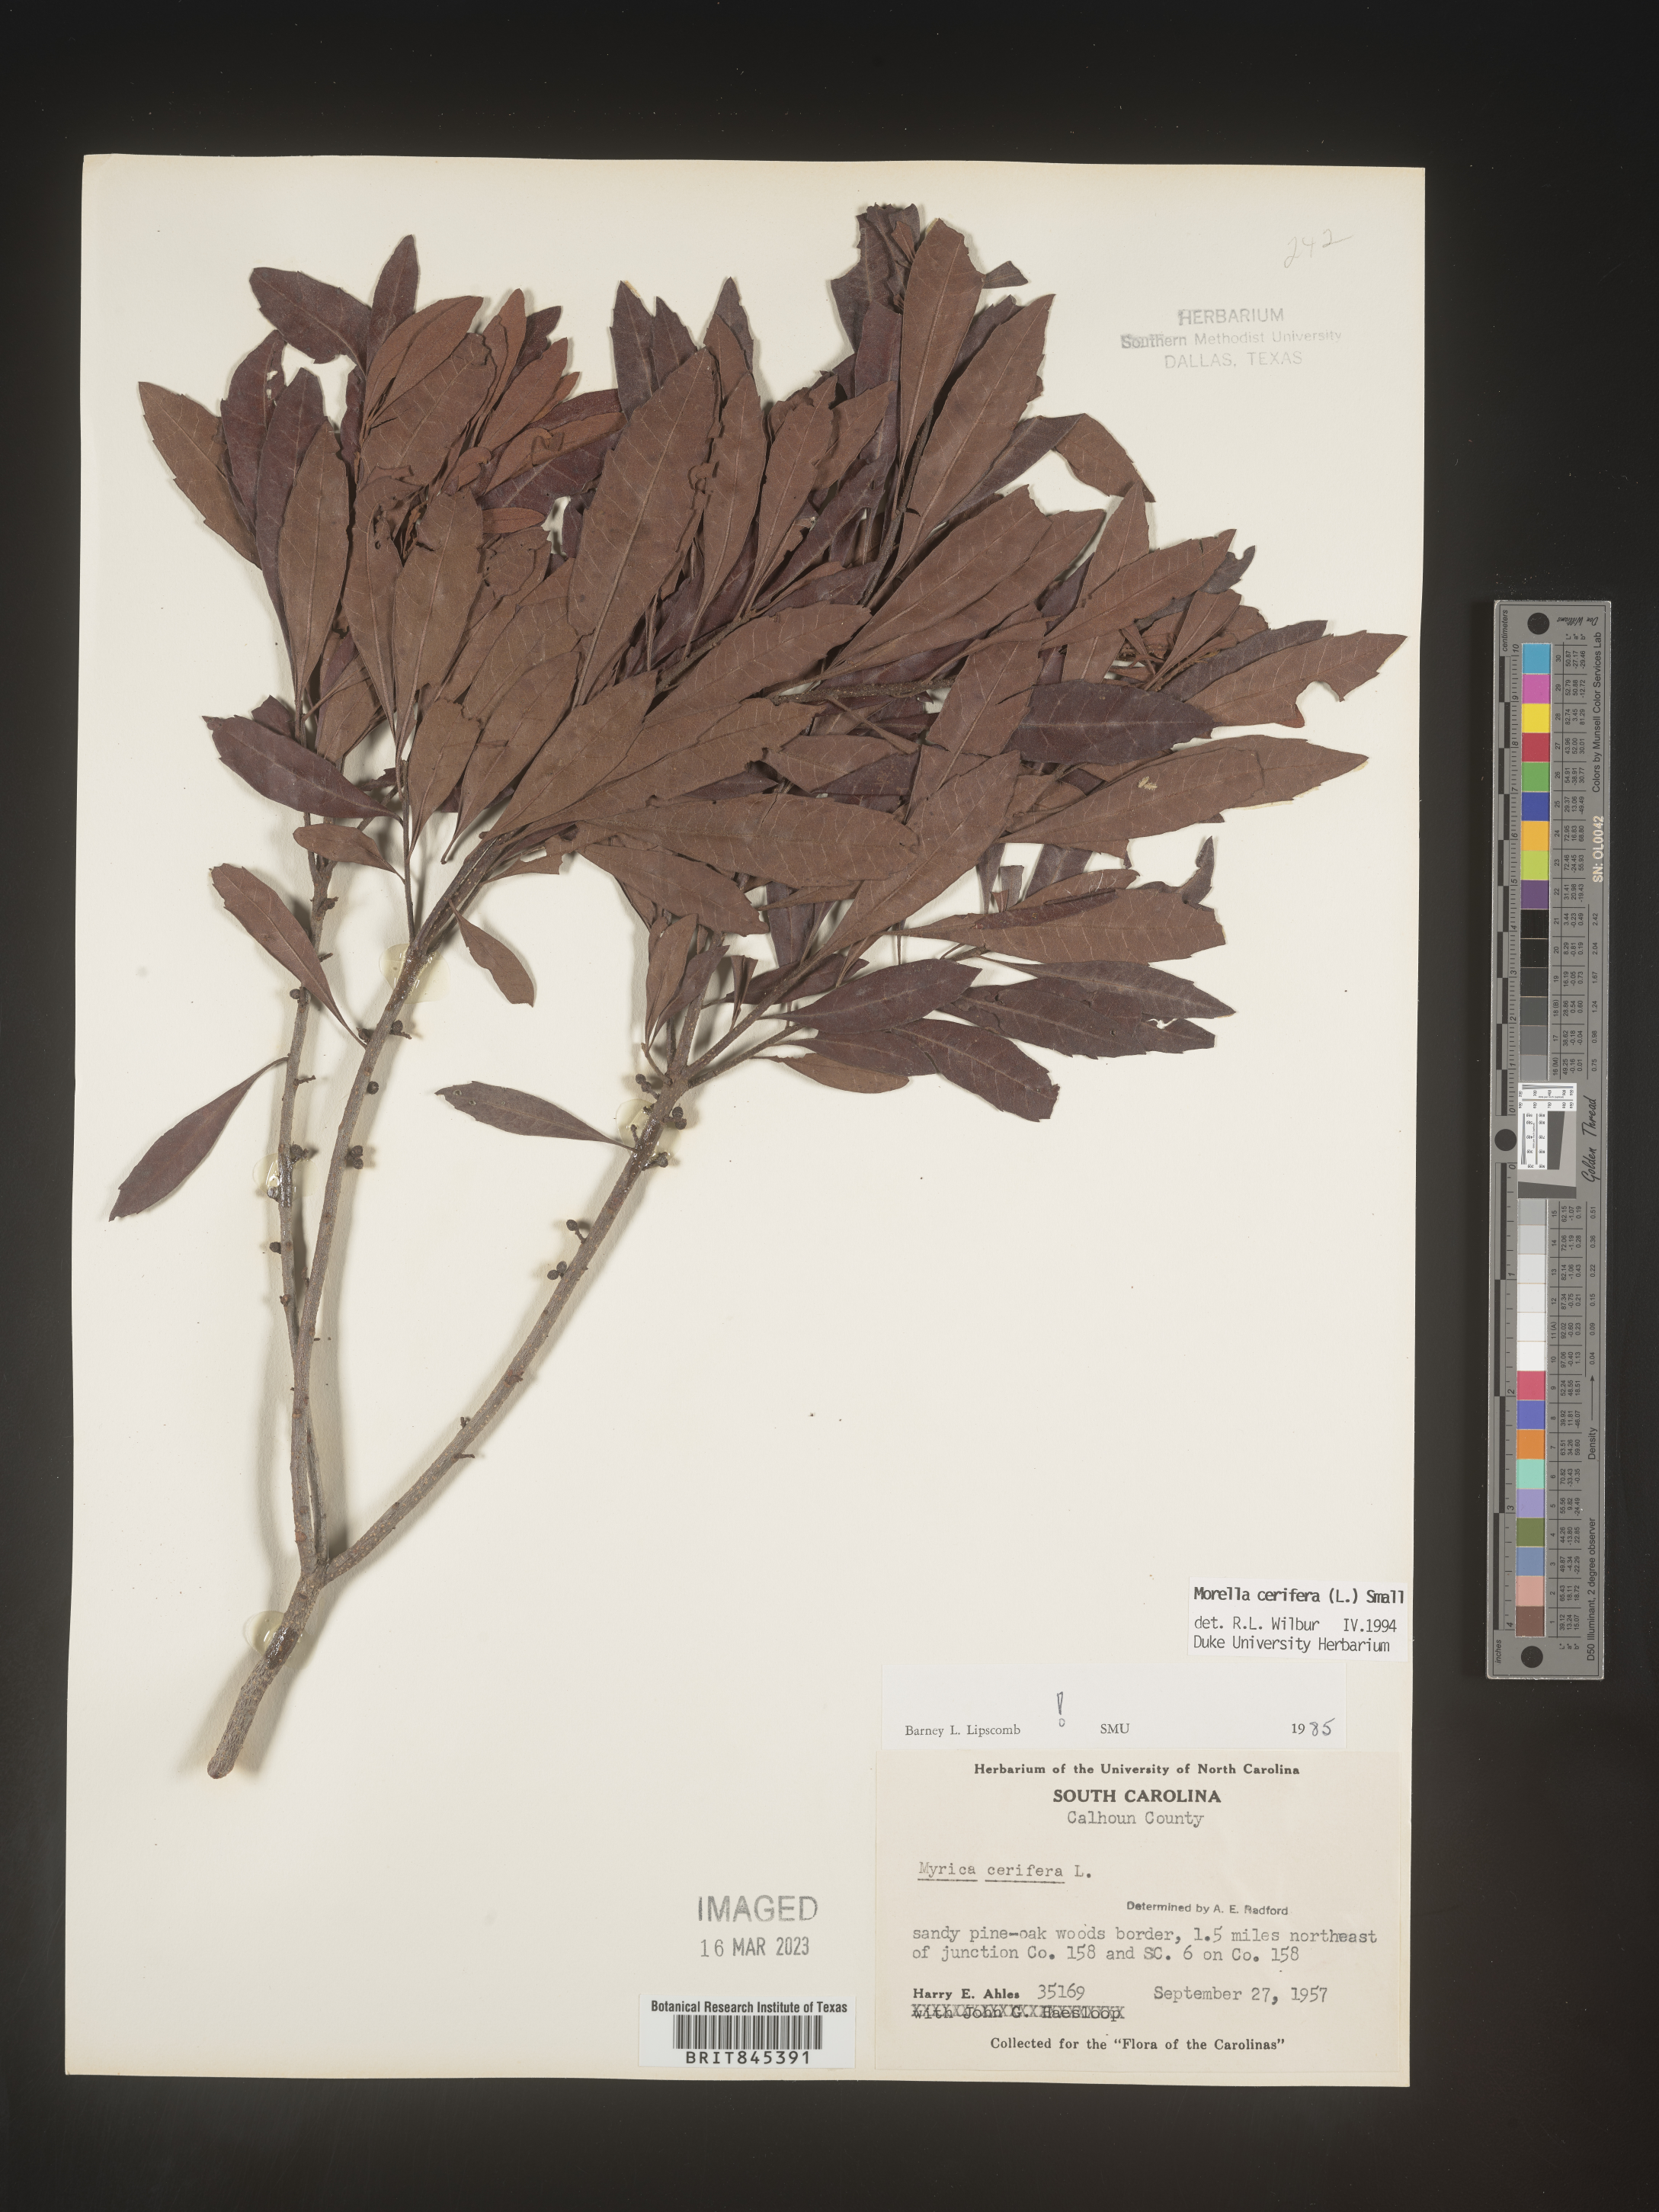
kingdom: Plantae
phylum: Tracheophyta
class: Magnoliopsida
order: Fagales
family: Myricaceae
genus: Morella
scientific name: Morella cerifera
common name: Wax myrtle
